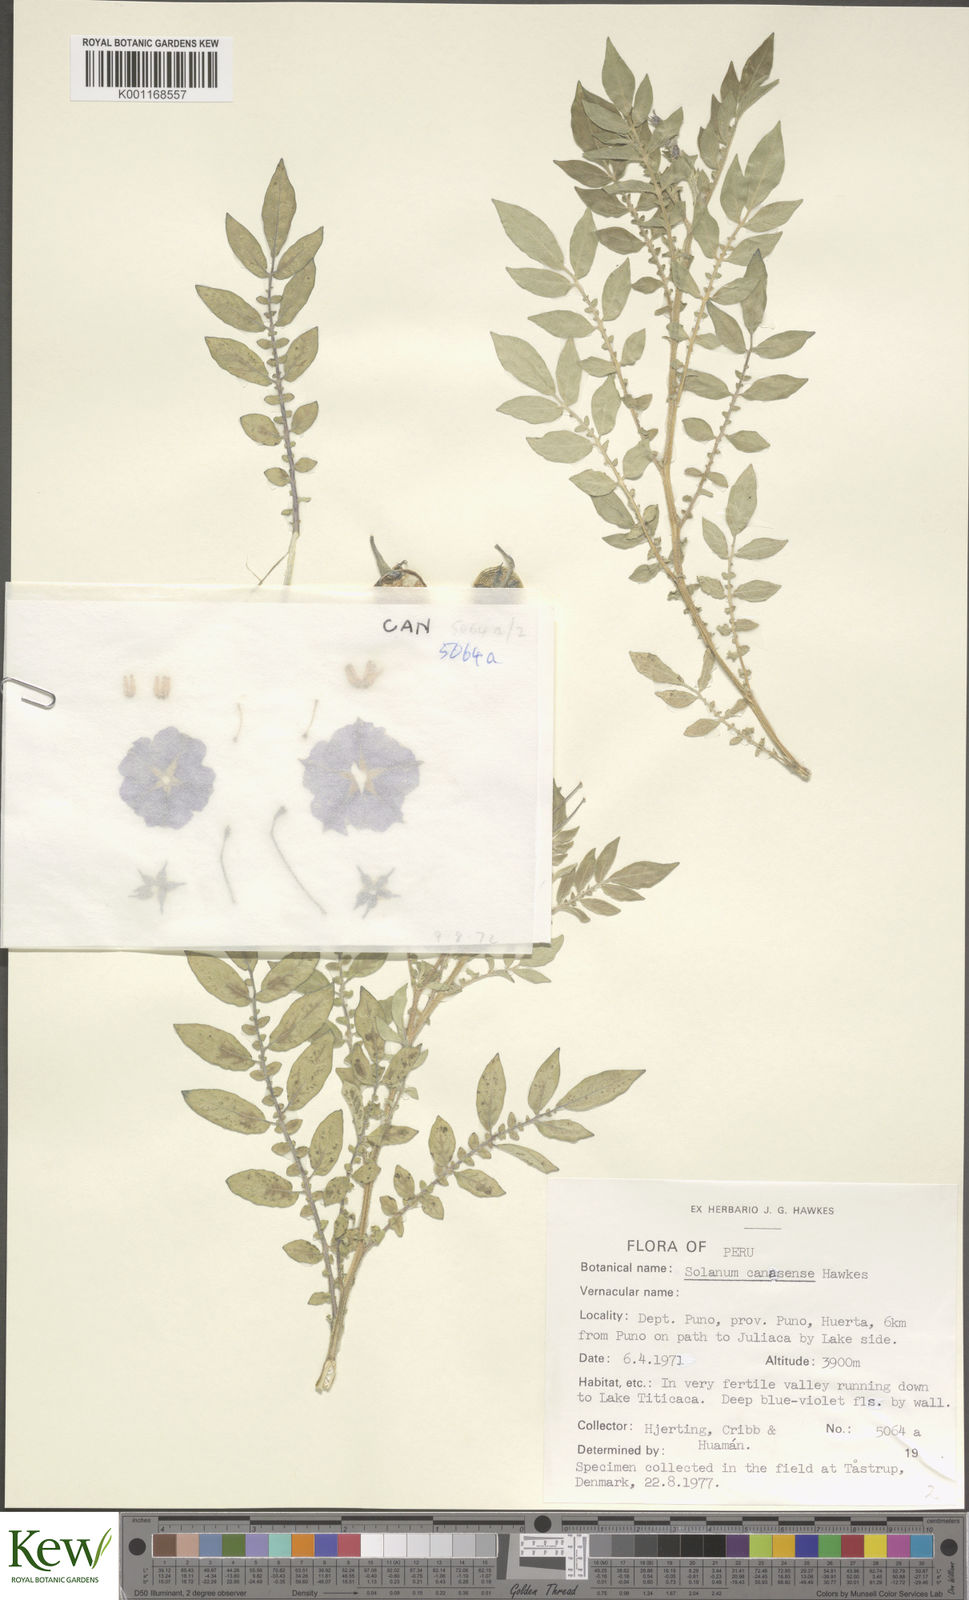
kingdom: Plantae
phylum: Tracheophyta
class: Magnoliopsida
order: Solanales
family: Solanaceae
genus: Solanum
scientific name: Solanum candolleanum
